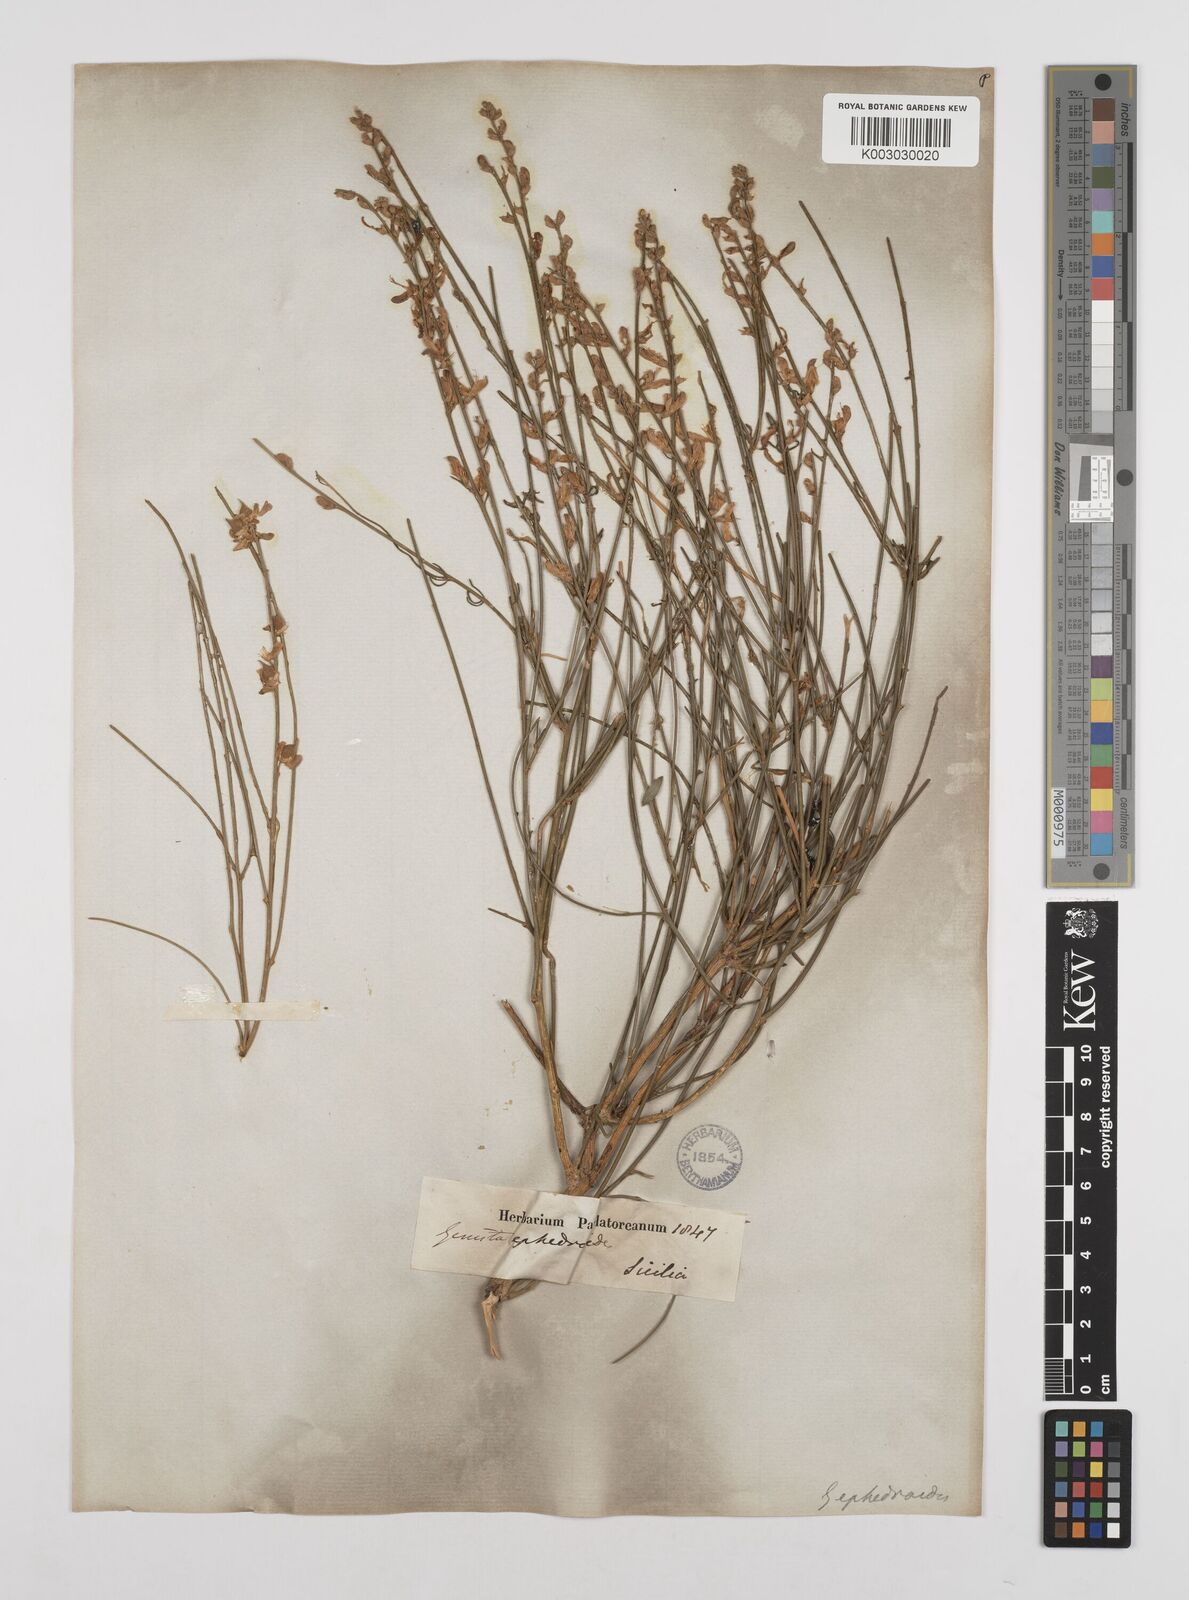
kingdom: Plantae
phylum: Tracheophyta
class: Magnoliopsida
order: Fabales
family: Fabaceae
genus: Genista
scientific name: Genista ephedroides
